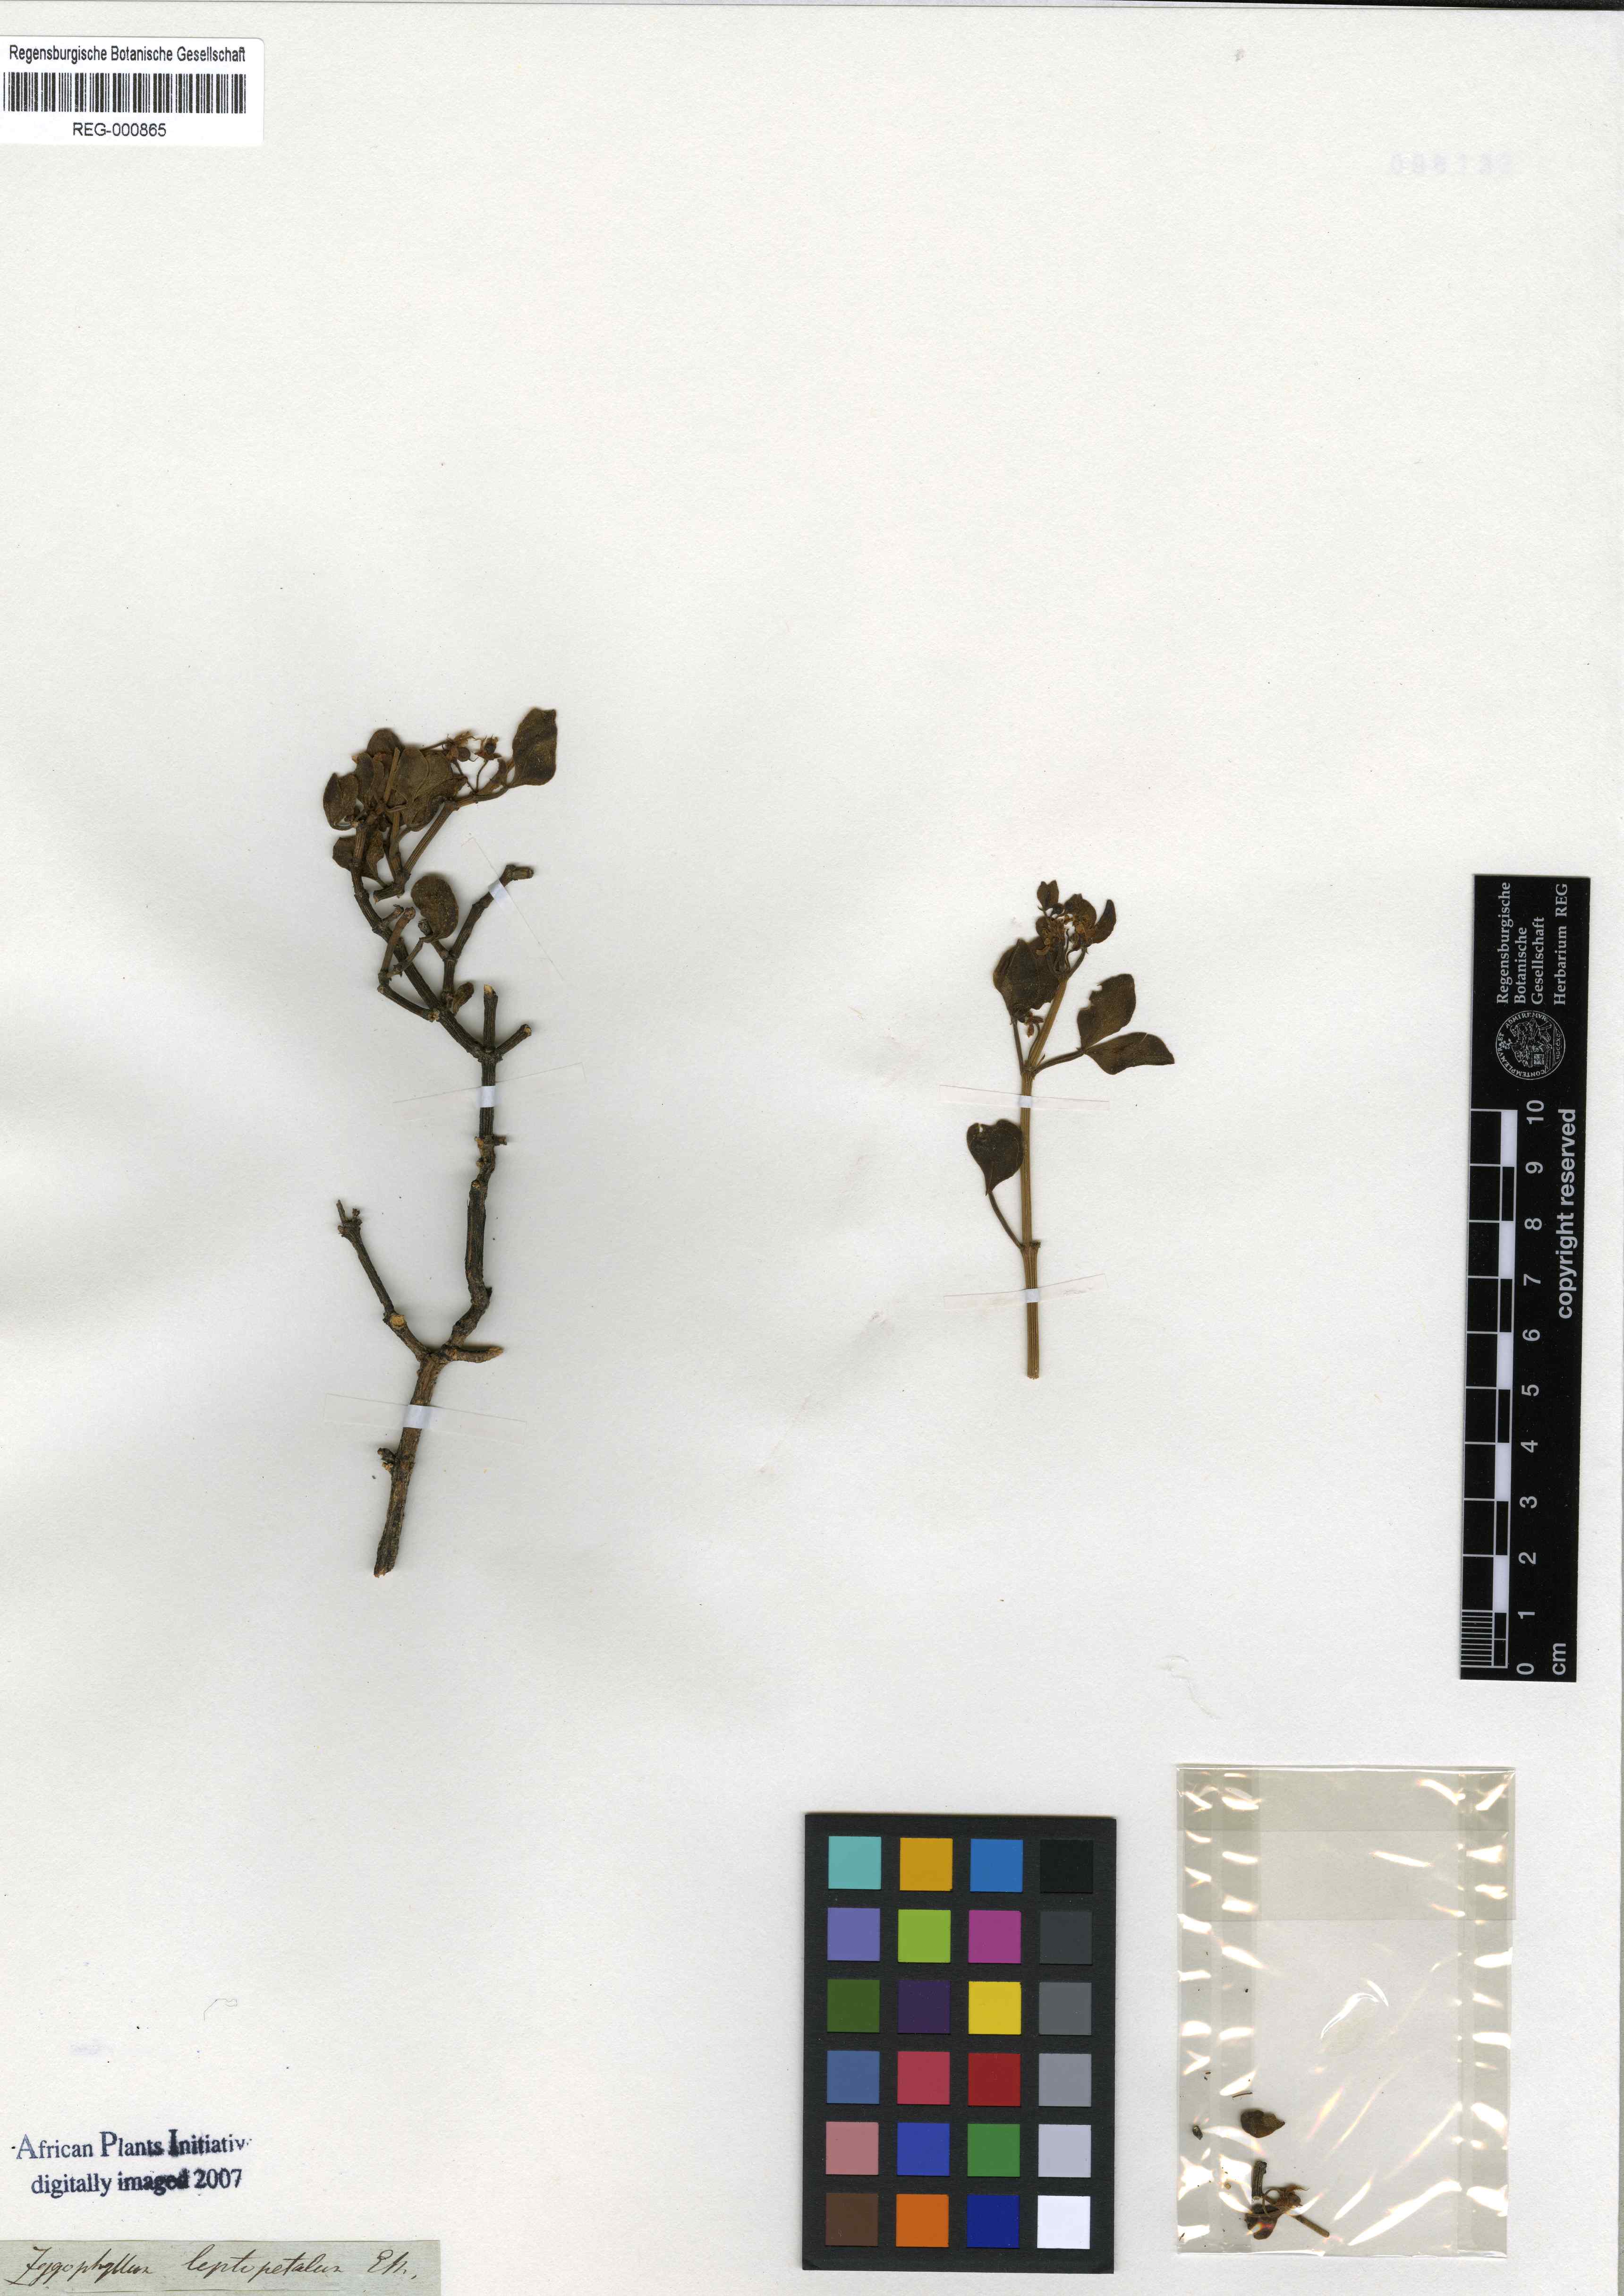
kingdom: Plantae
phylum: Tracheophyta
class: Magnoliopsida
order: Zygophyllales
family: Zygophyllaceae
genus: Roepera
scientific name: Roepera leptopetala
